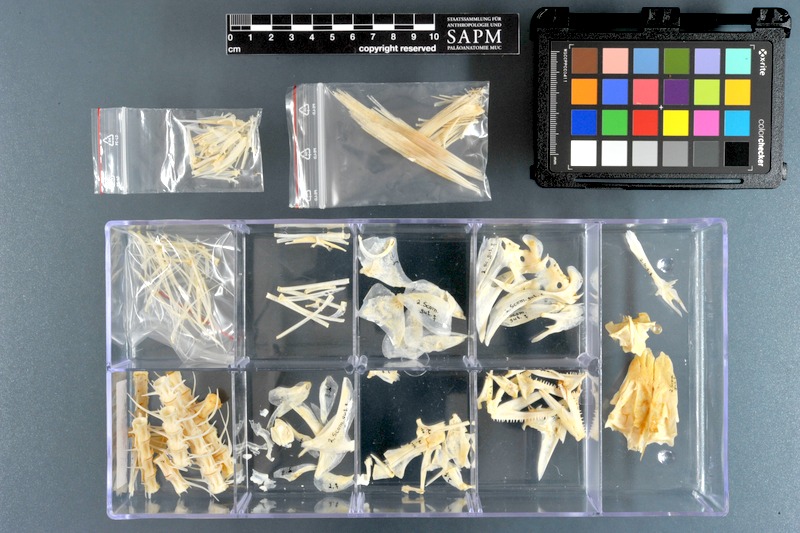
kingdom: Animalia
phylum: Chordata
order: Perciformes
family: Scombridae
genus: Scomberomorus
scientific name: Scomberomorus guttatus
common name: Spotted spanish mackerel
